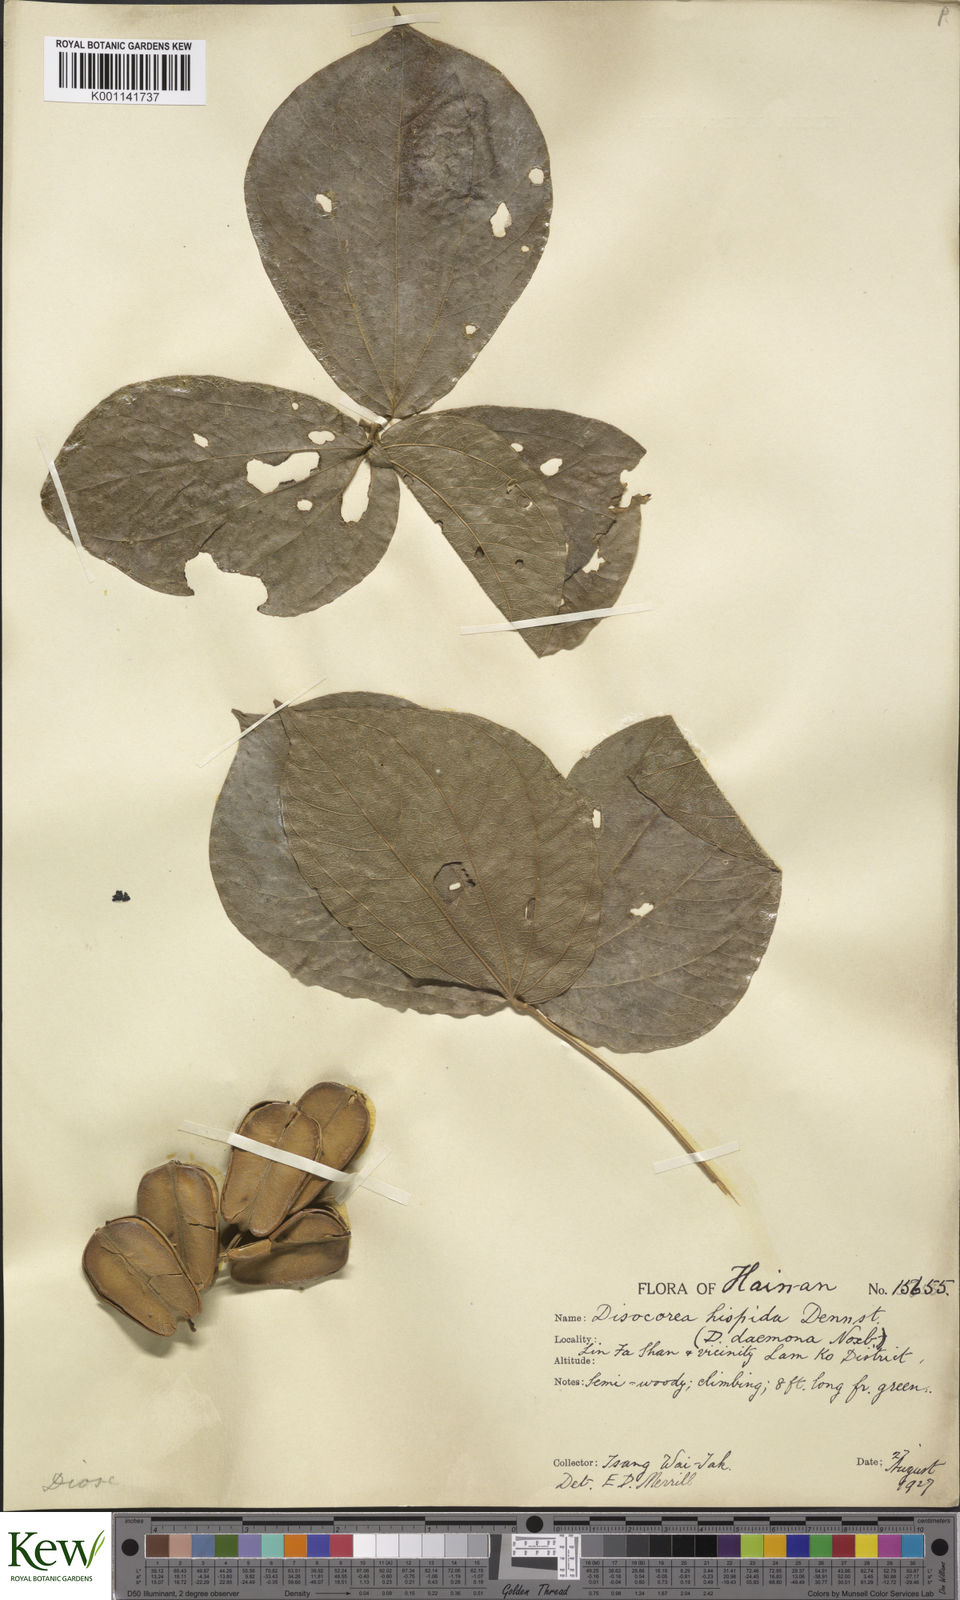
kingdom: Plantae
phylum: Tracheophyta
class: Liliopsida
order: Dioscoreales
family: Dioscoreaceae
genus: Dioscorea
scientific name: Dioscorea hispida
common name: Asiatic bitter yam
